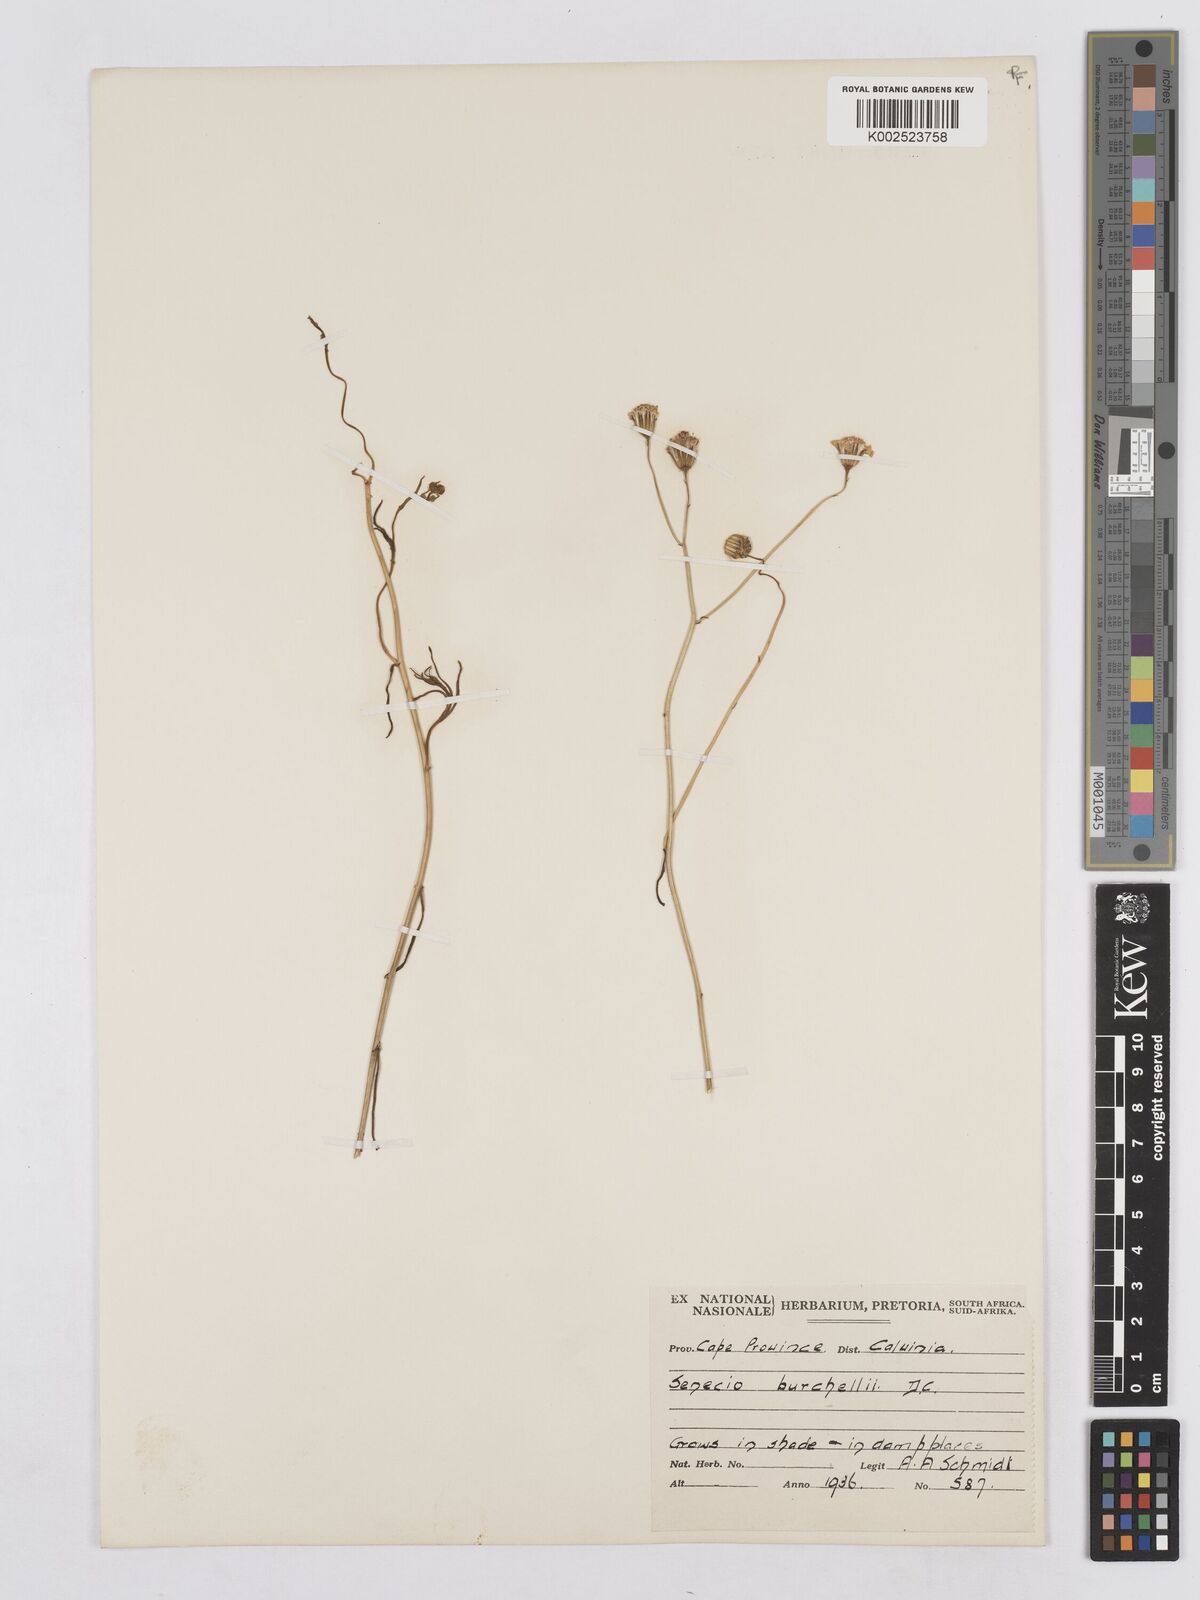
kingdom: Plantae
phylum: Tracheophyta
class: Magnoliopsida
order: Asterales
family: Asteraceae
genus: Senecio
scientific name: Senecio burchellii
